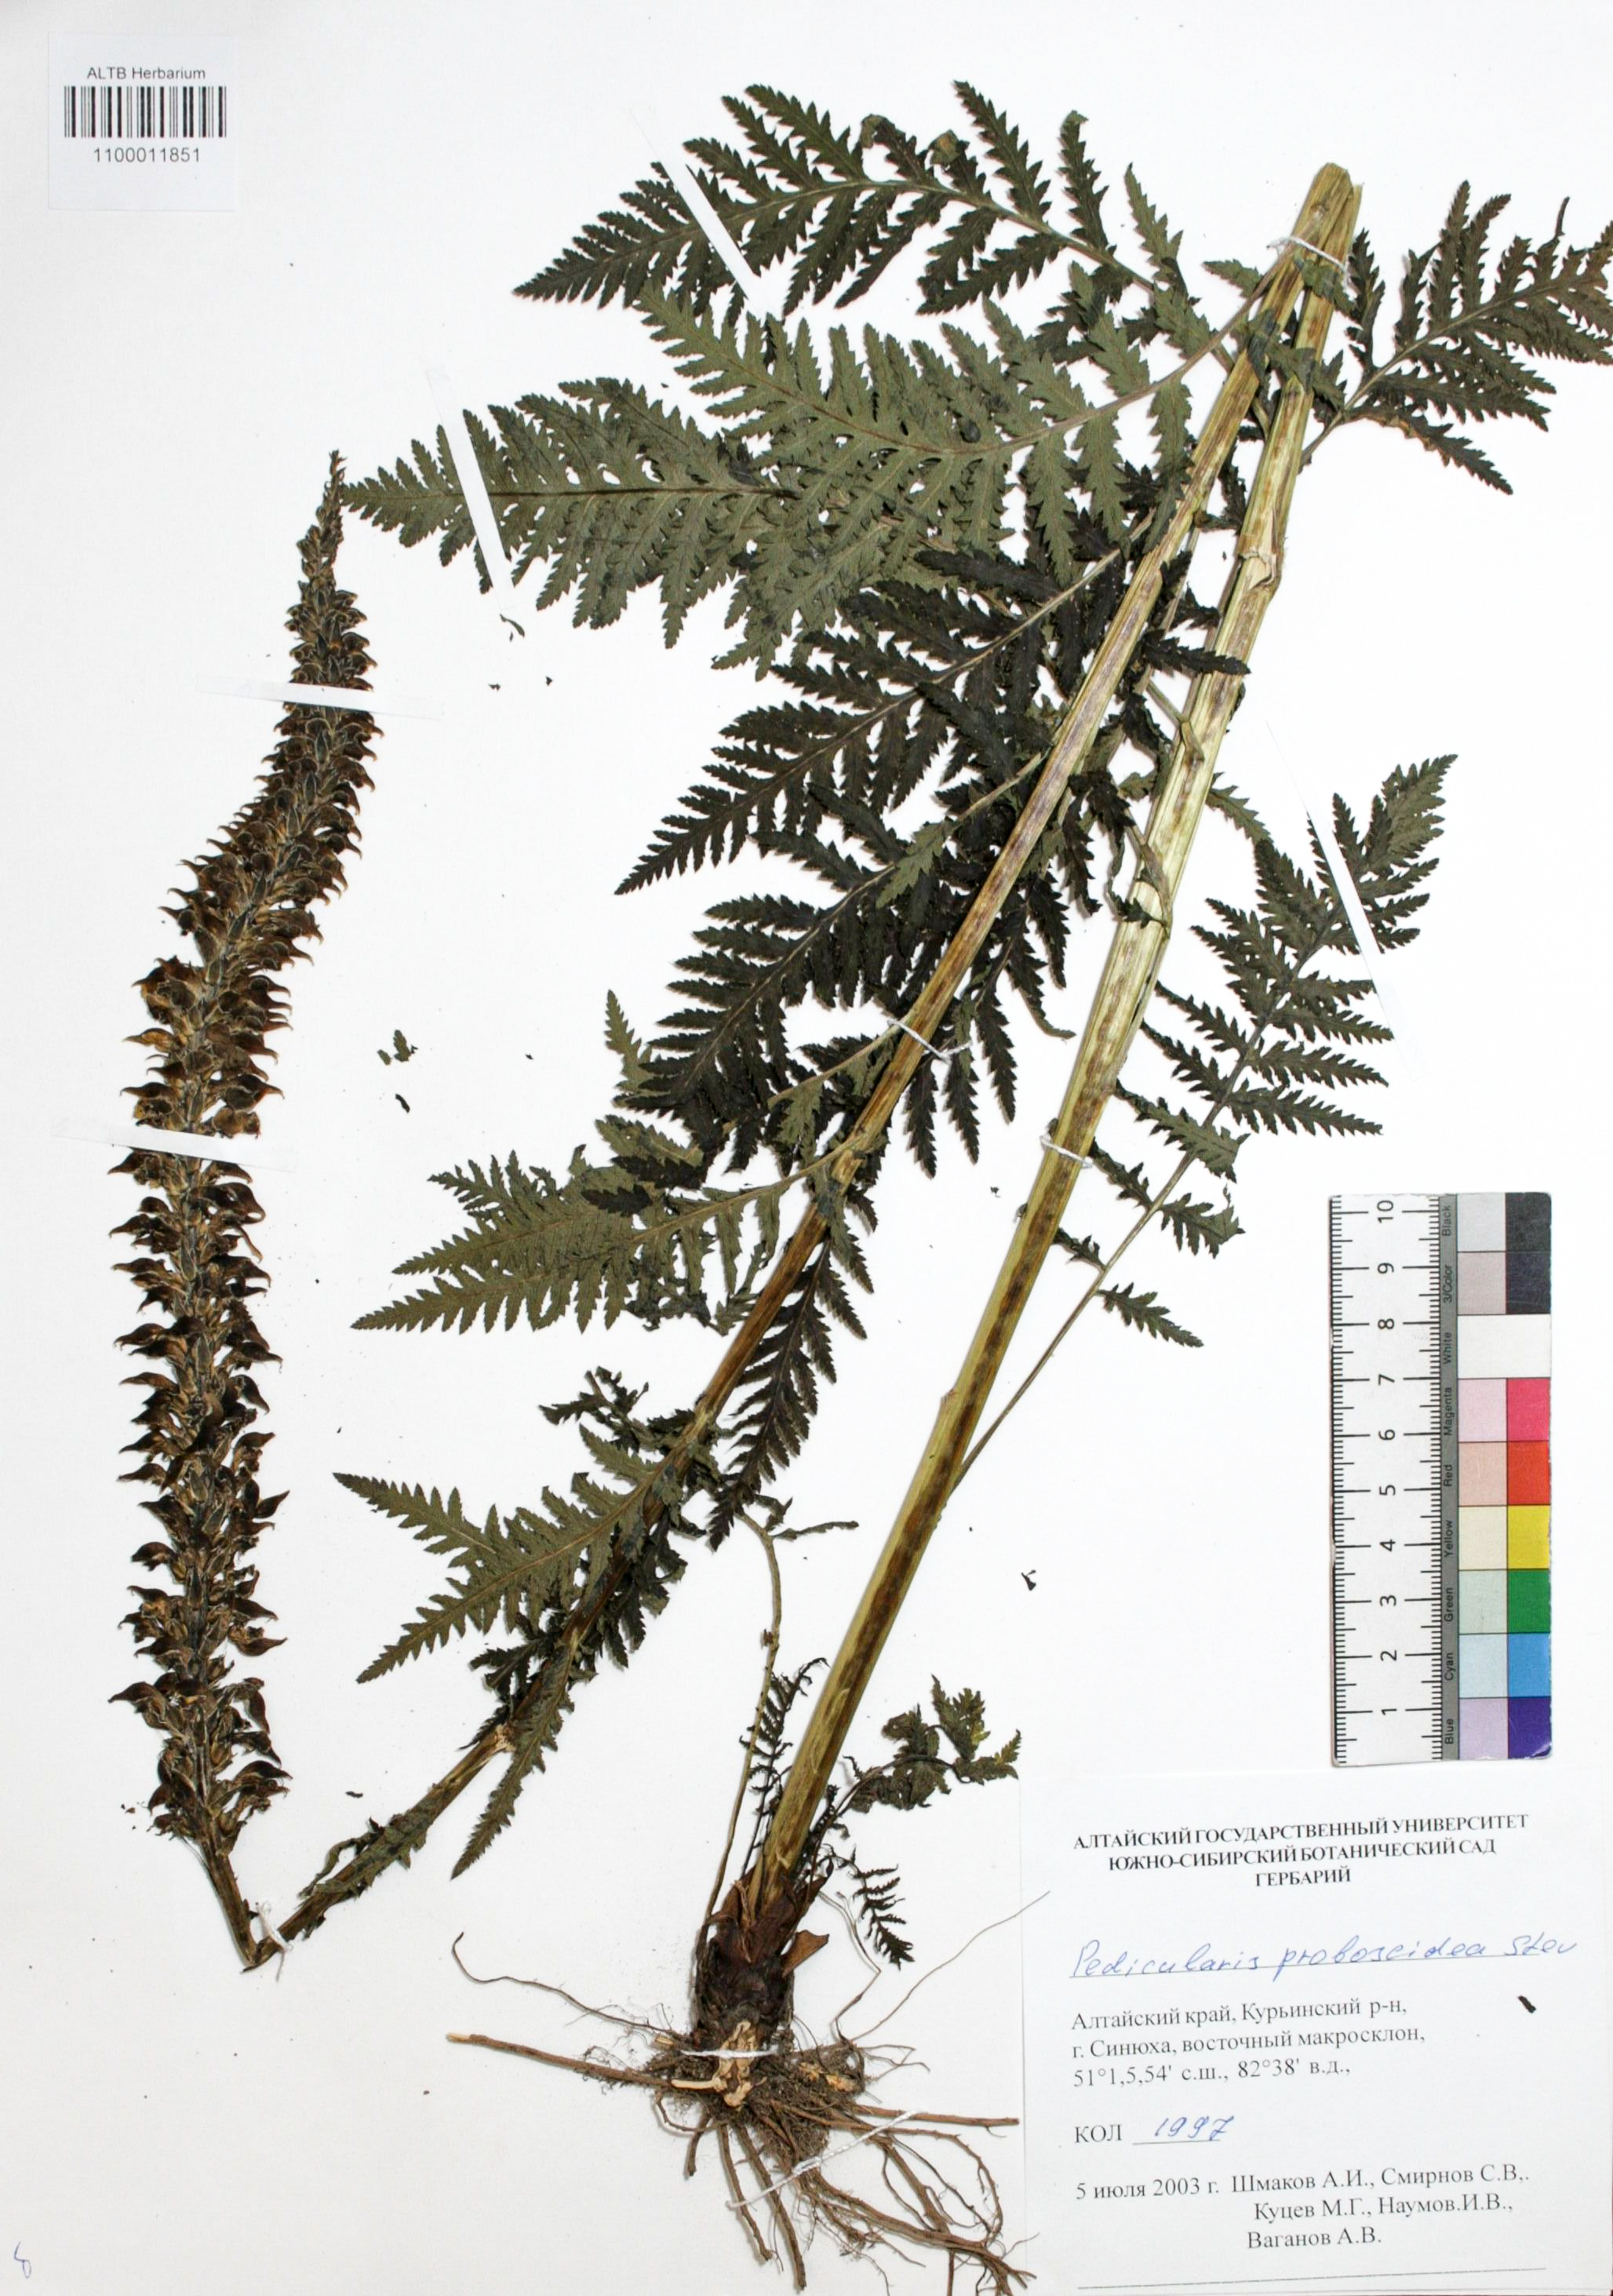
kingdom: Plantae
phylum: Tracheophyta
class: Magnoliopsida
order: Lamiales
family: Orobanchaceae
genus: Pedicularis
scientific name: Pedicularis proboscidea
